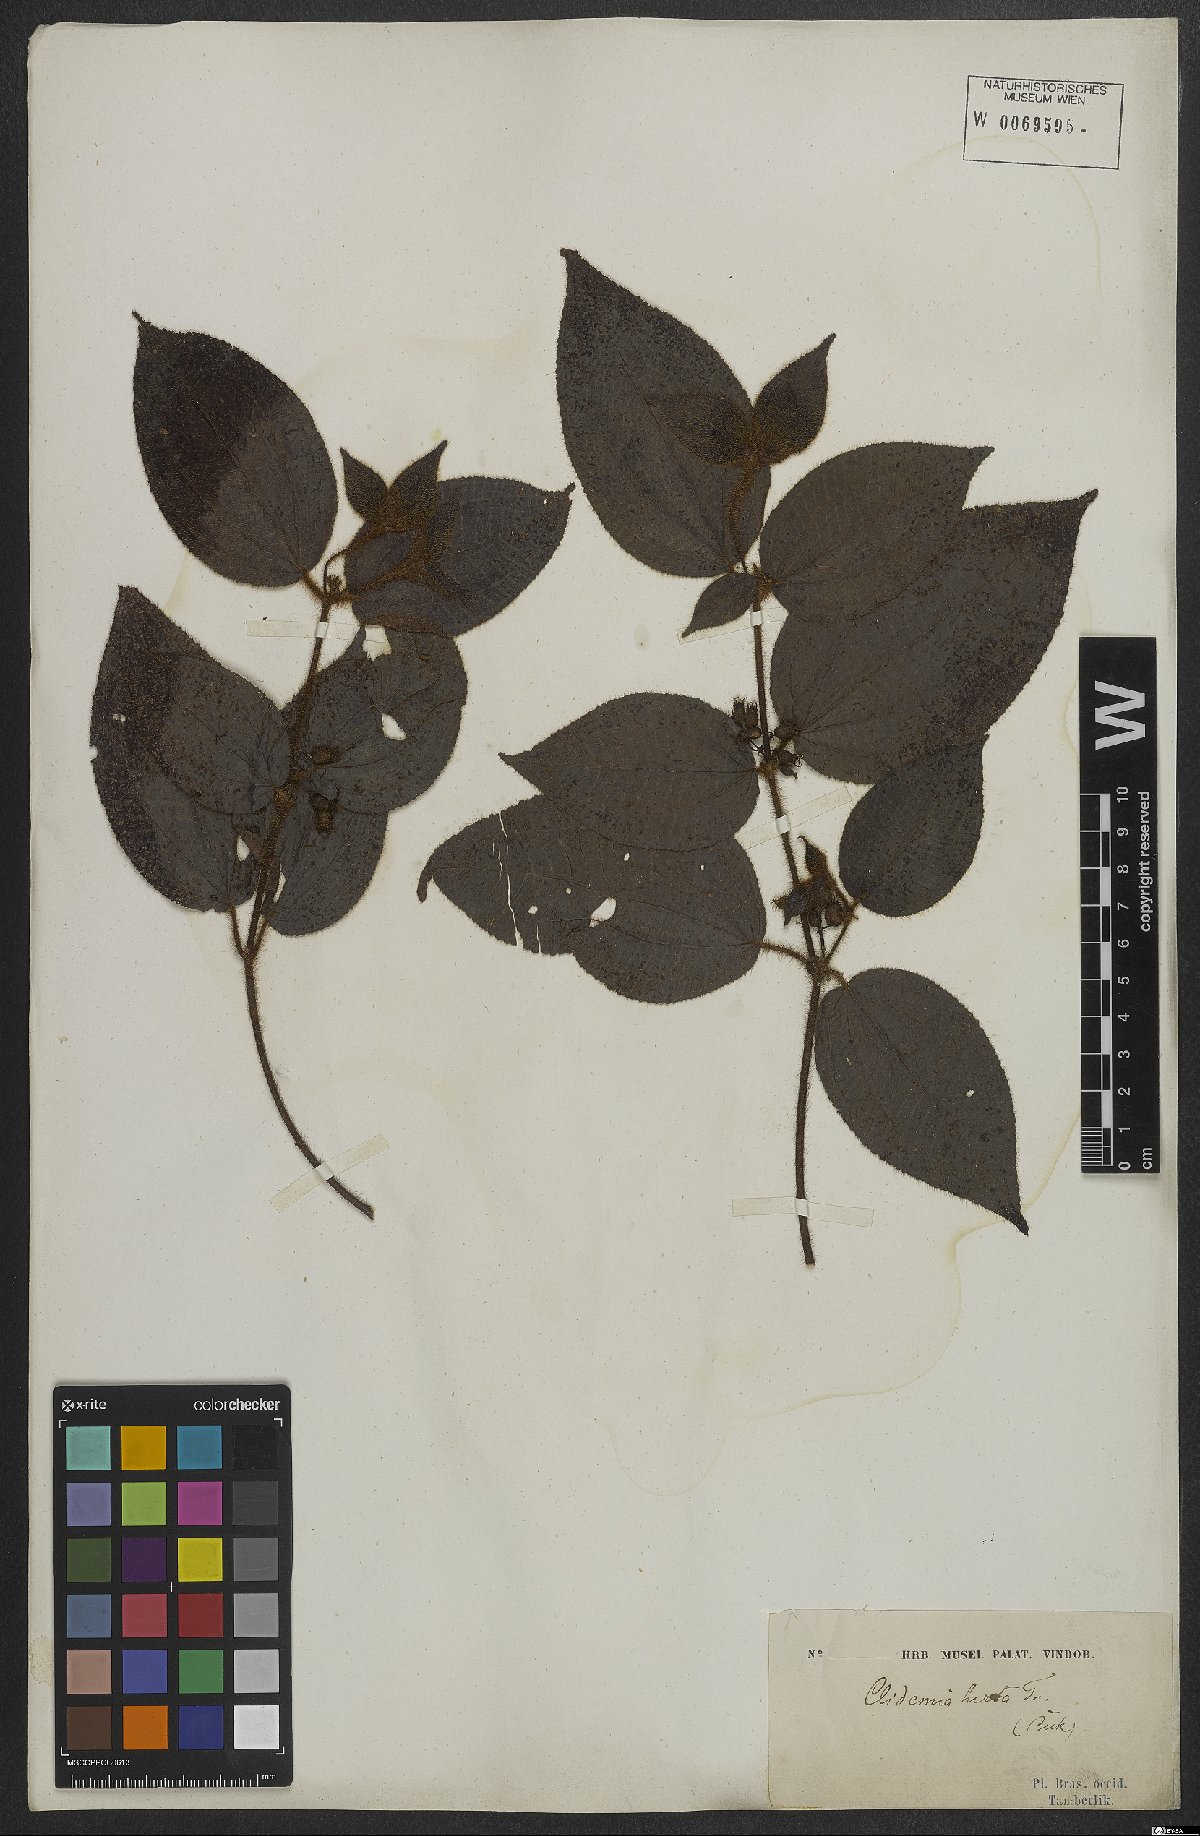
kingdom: Plantae
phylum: Tracheophyta
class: Magnoliopsida
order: Myrtales
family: Melastomataceae
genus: Miconia
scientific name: Miconia crenata
